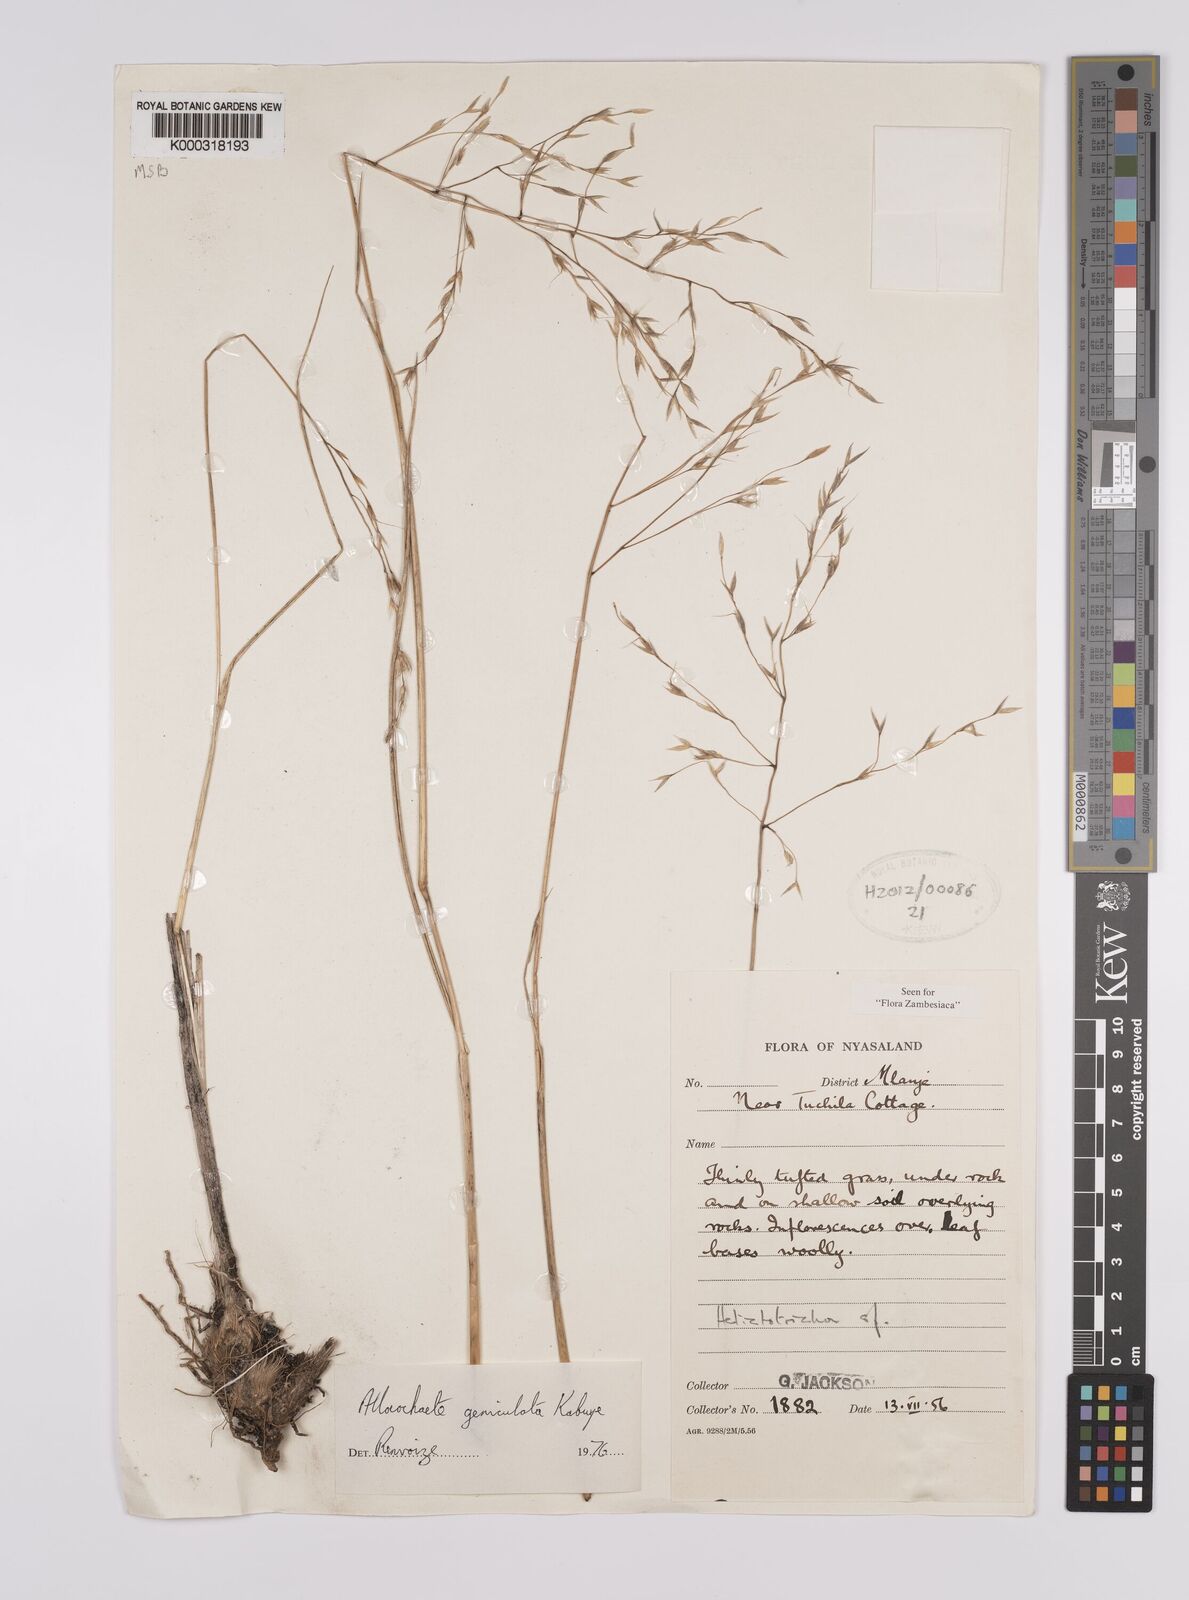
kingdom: Plantae
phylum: Tracheophyta
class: Liliopsida
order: Poales
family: Poaceae
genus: Alloeochaete
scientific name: Alloeochaete geniculata
